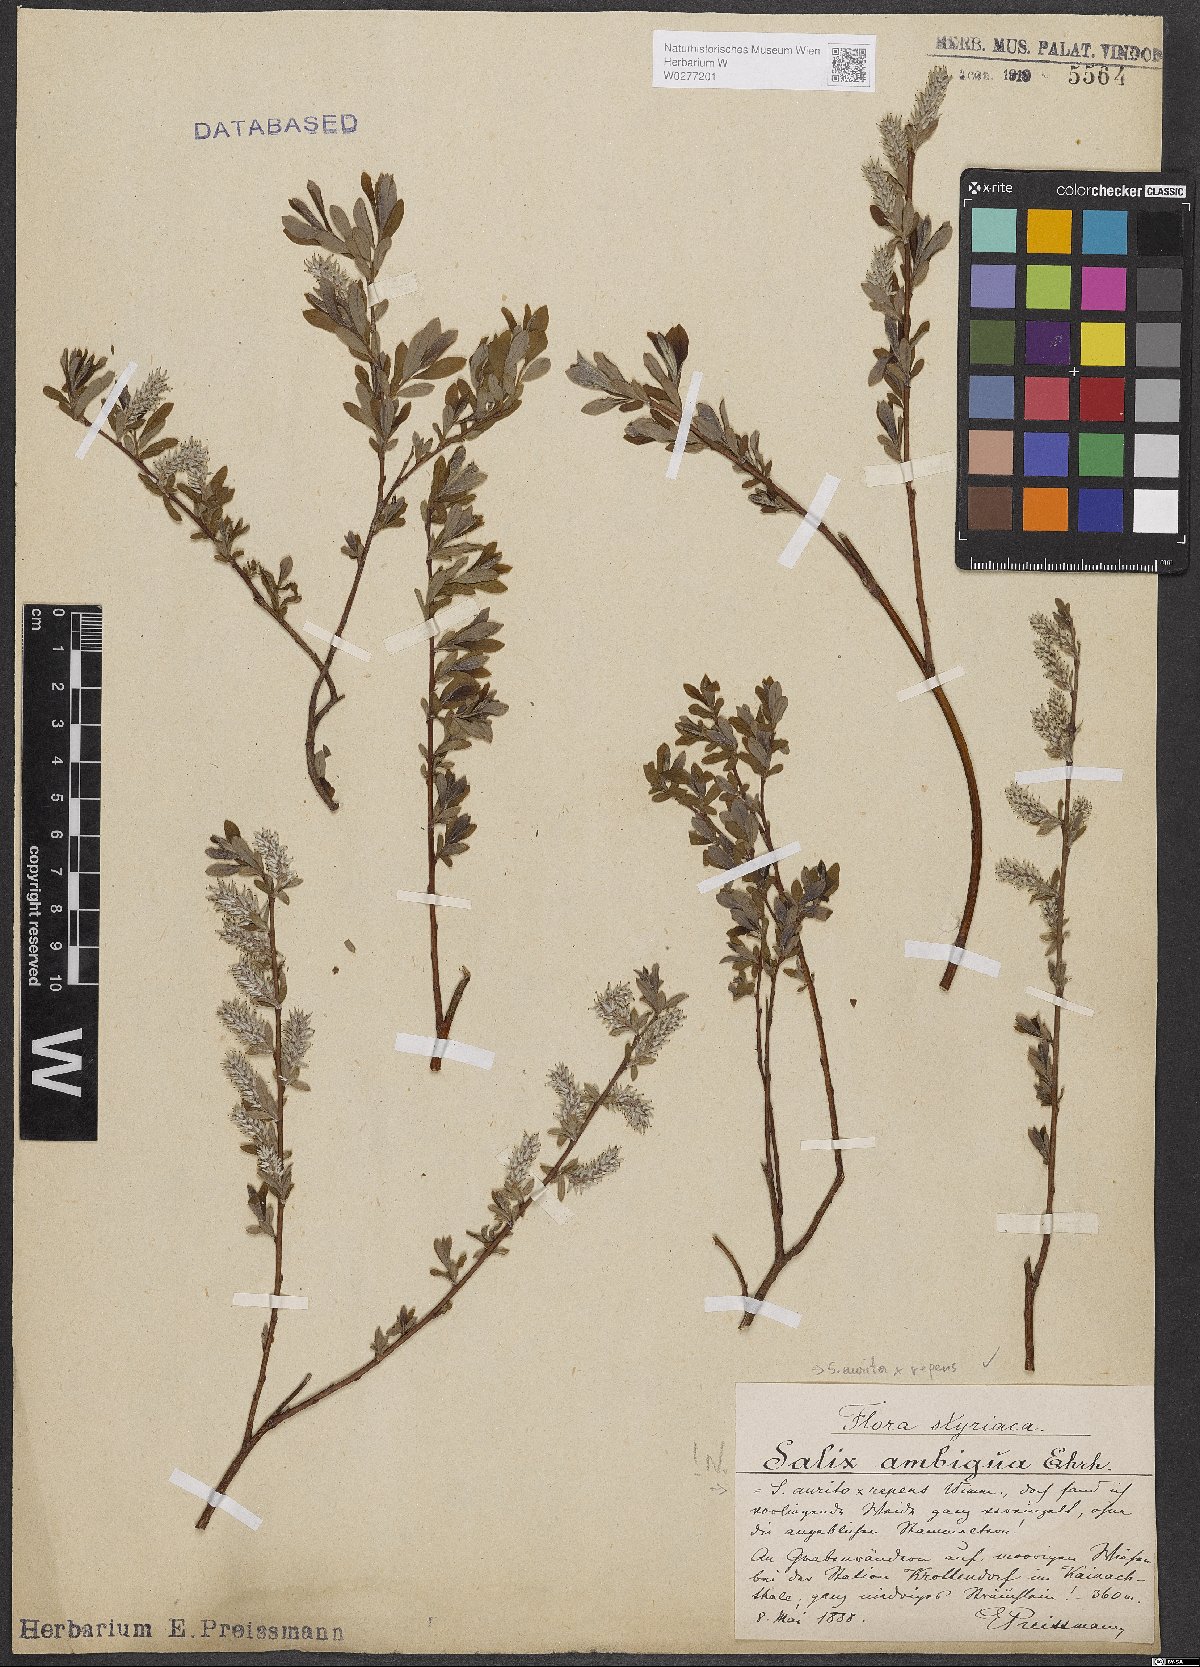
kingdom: Plantae
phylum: Tracheophyta
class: Magnoliopsida
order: Malpighiales
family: Salicaceae
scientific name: Salicaceae
